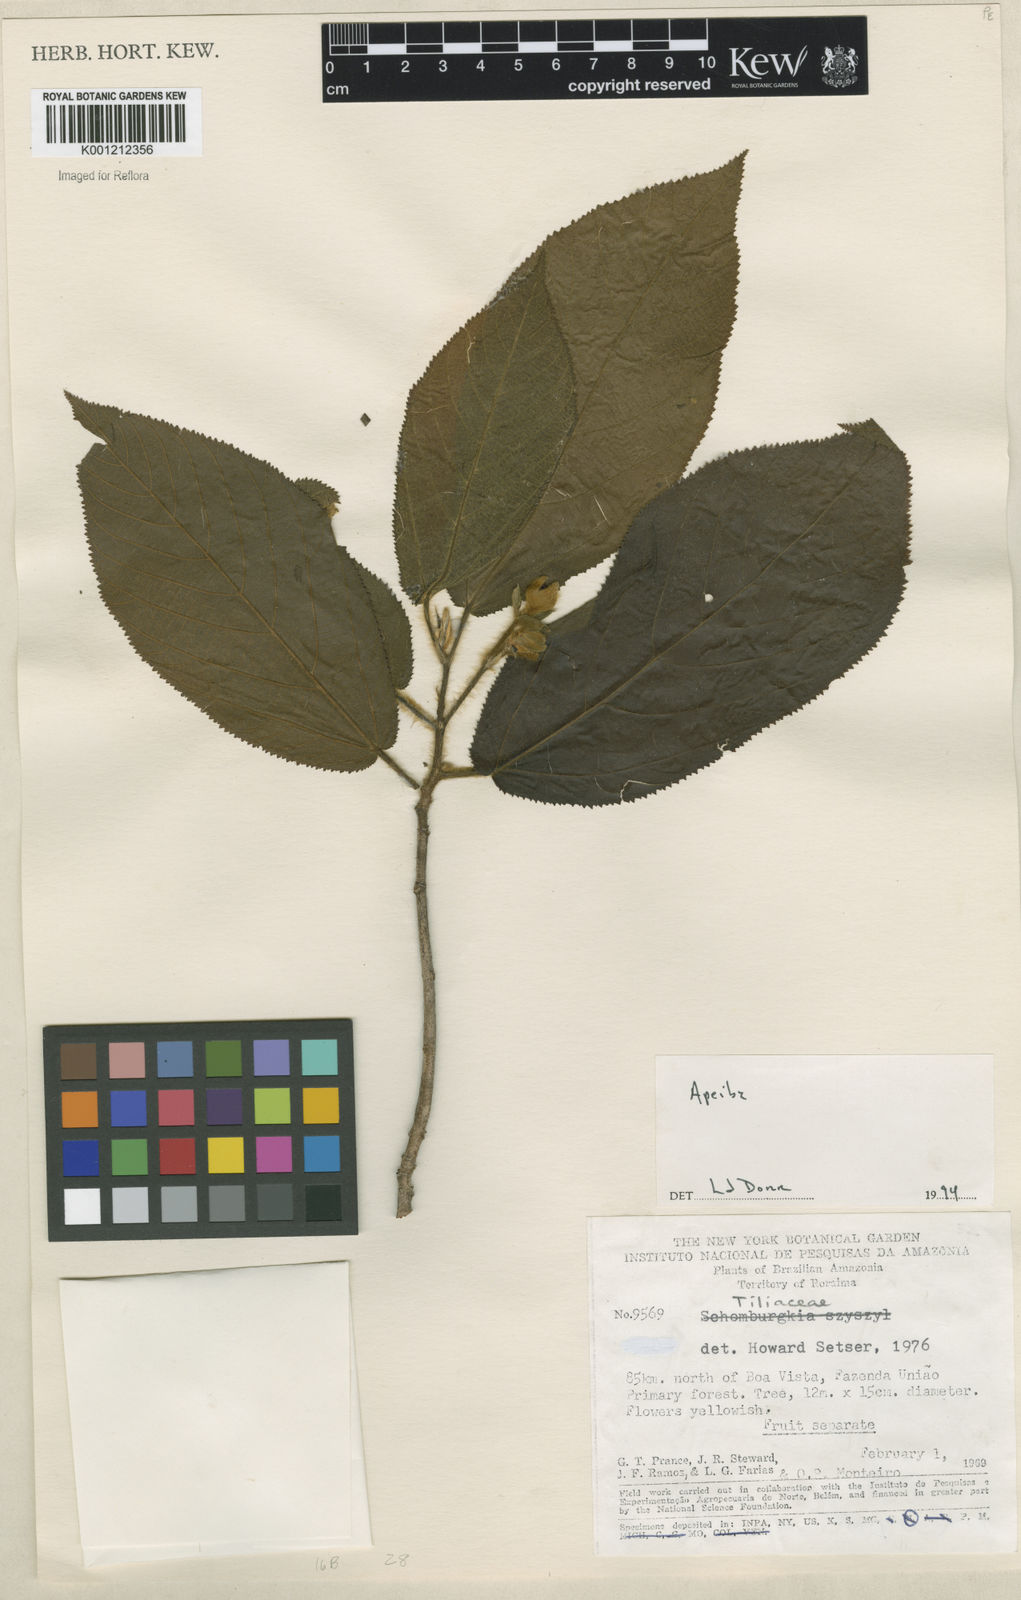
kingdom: Plantae
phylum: Tracheophyta
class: Magnoliopsida
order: Malvales
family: Malvaceae
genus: Apeiba
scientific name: Apeiba
